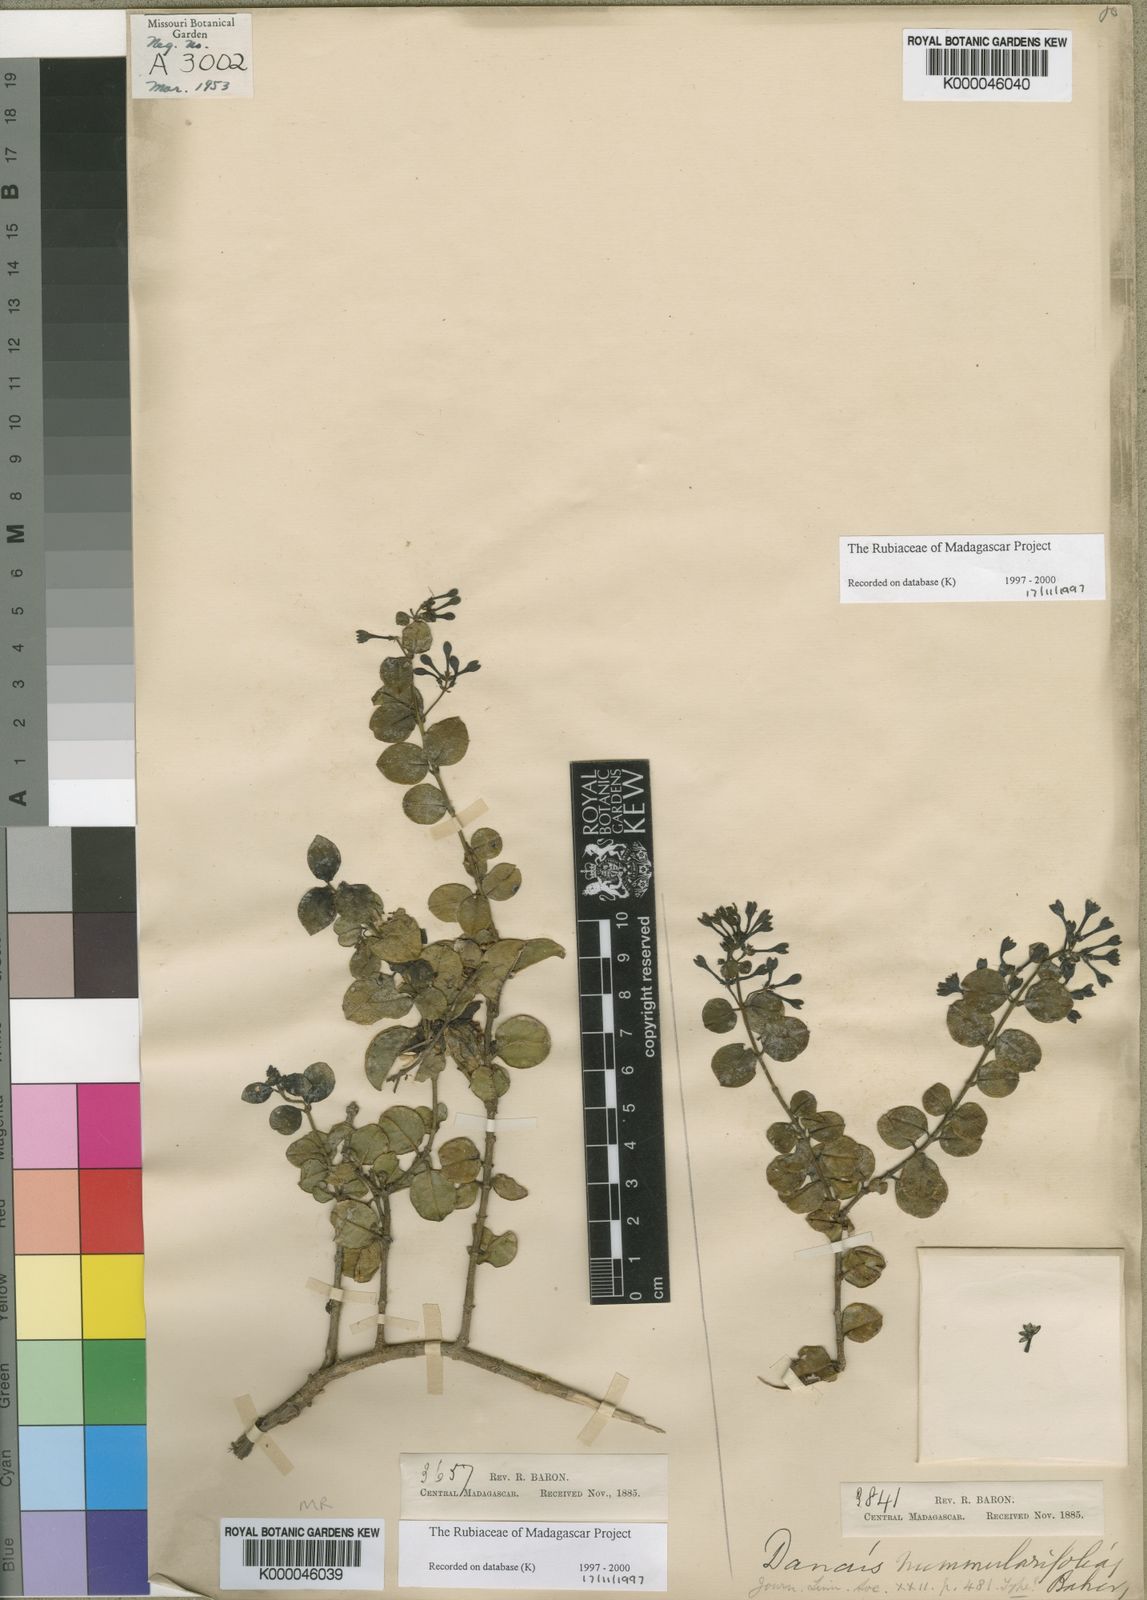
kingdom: Plantae
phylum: Tracheophyta
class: Magnoliopsida
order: Gentianales
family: Rubiaceae
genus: Danais
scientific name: Danais pubescens
